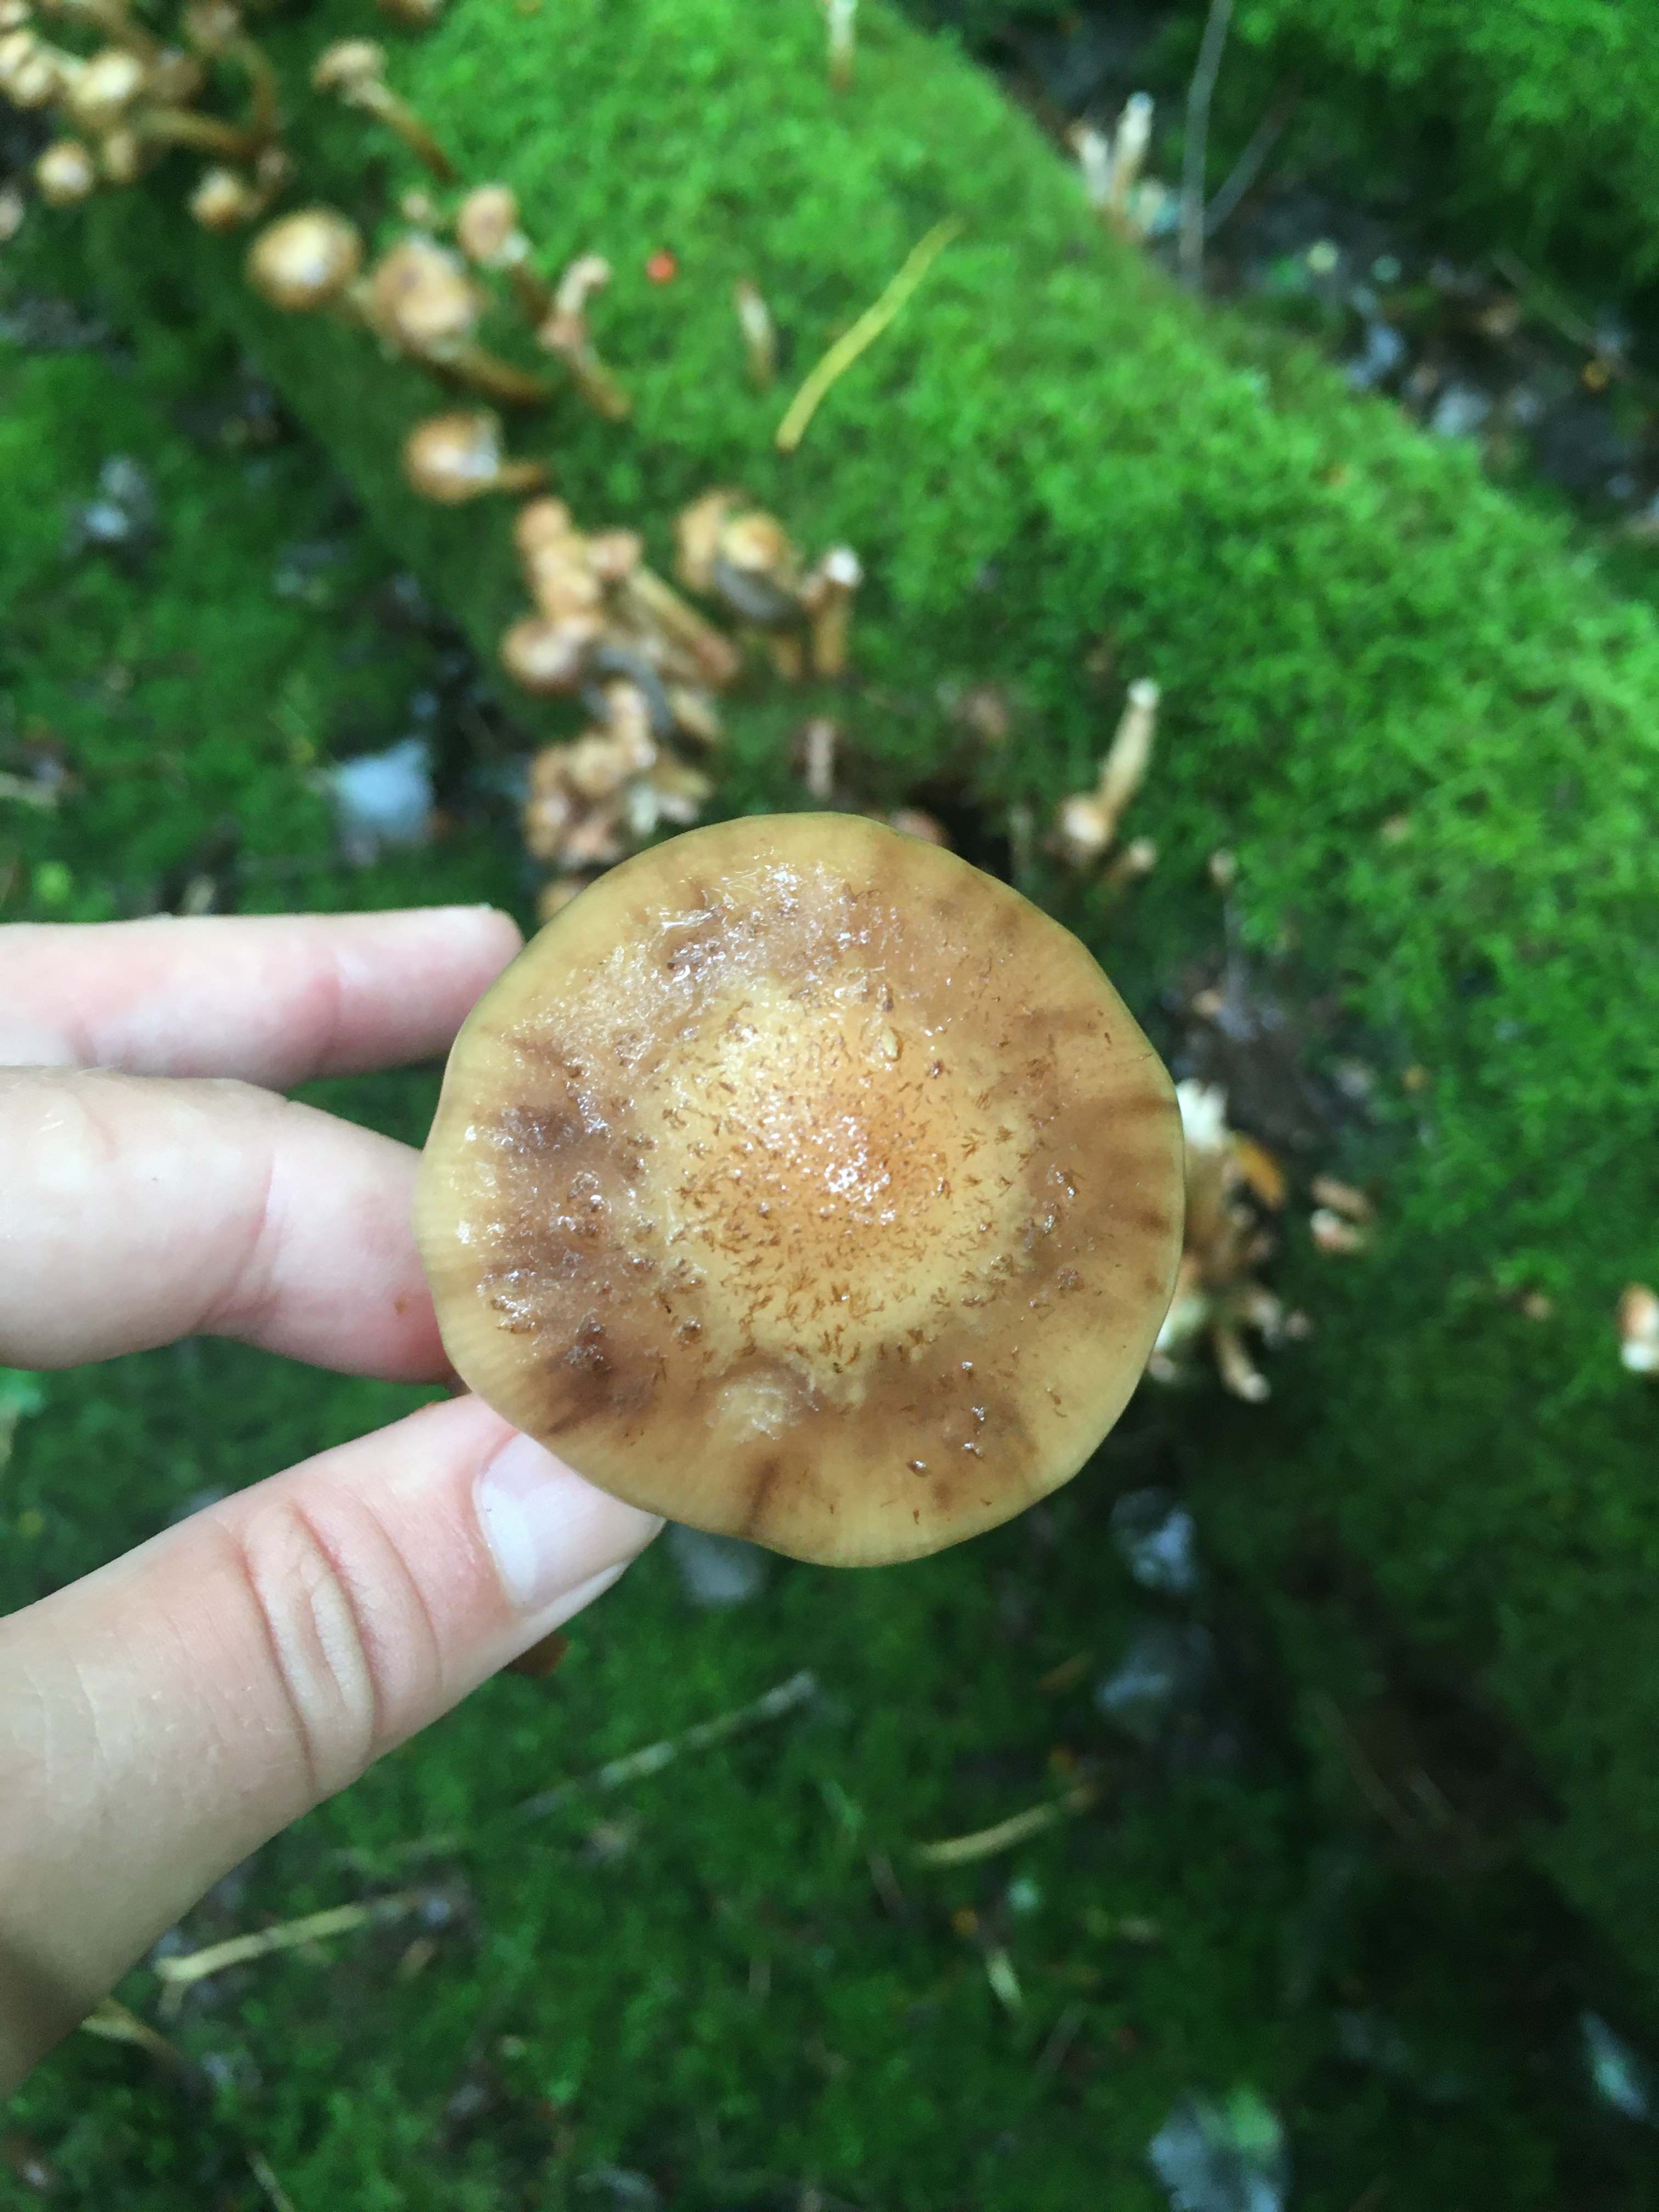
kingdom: Fungi
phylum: Basidiomycota
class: Agaricomycetes
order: Agaricales
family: Physalacriaceae
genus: Armillaria
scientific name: Armillaria borealis
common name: nordlig honningsvamp
